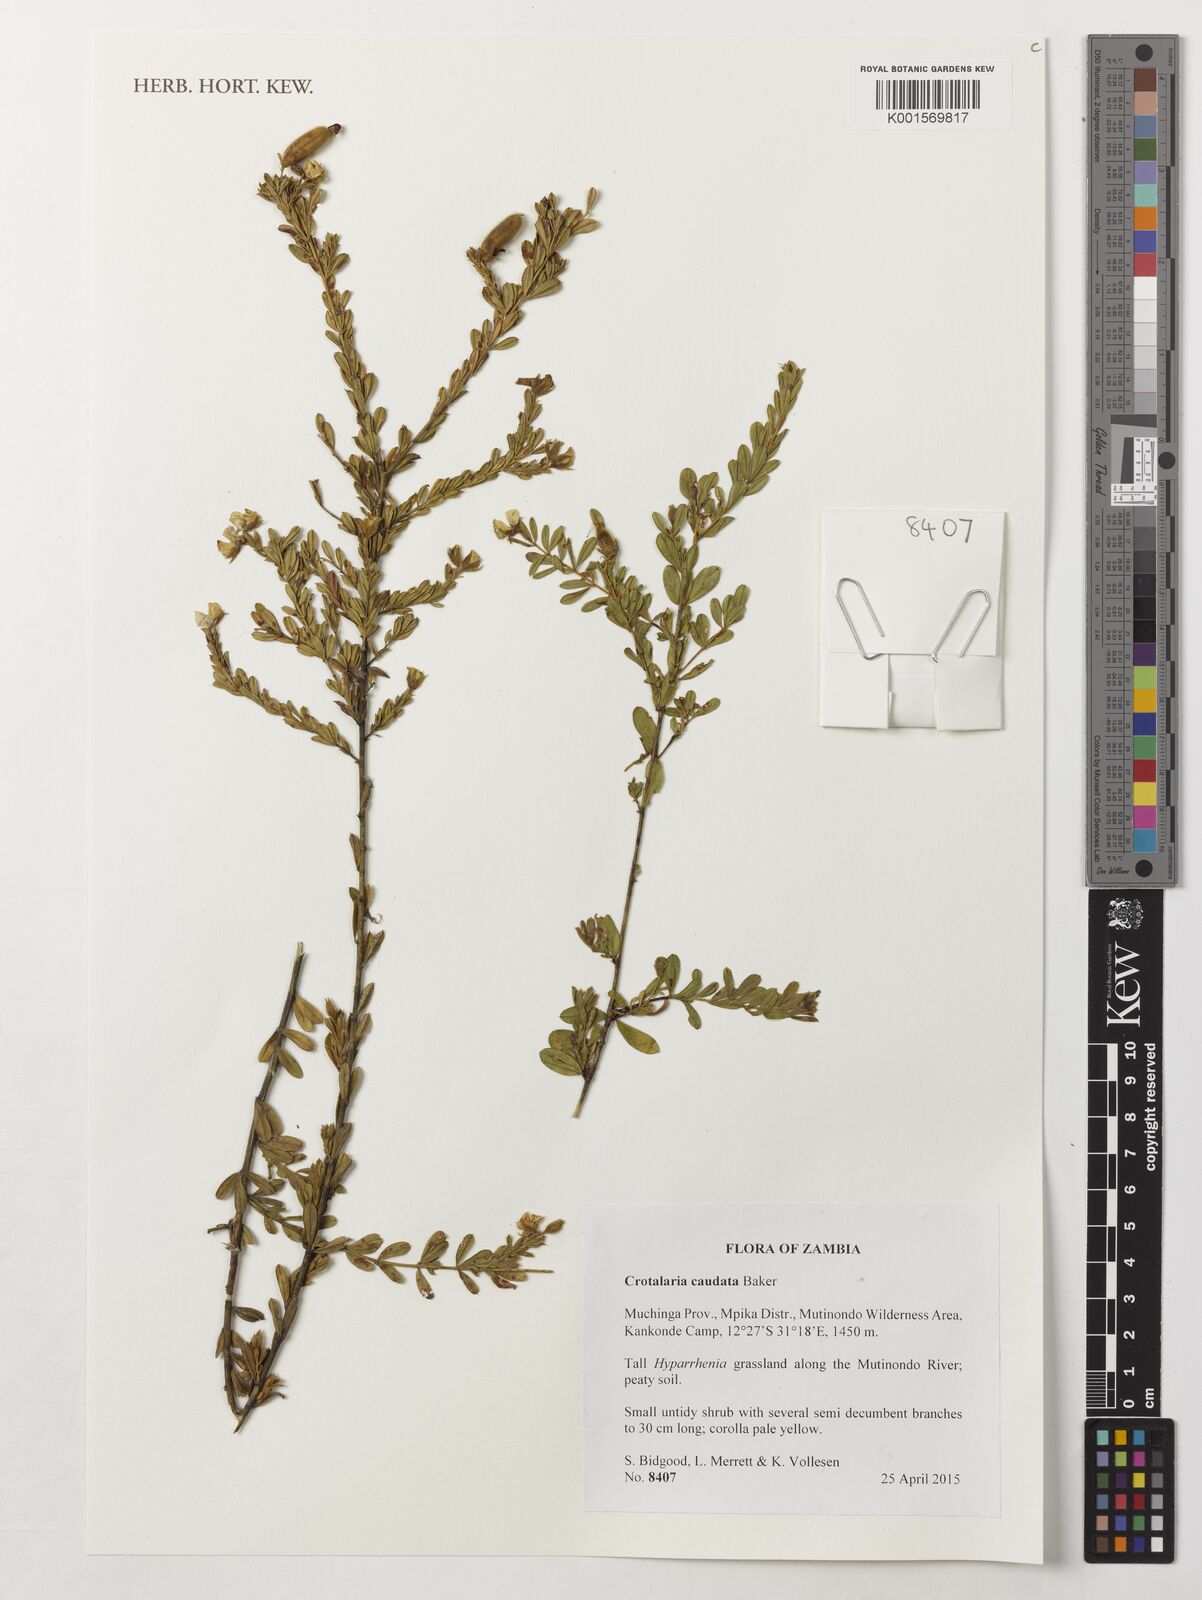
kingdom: Plantae
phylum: Tracheophyta
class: Magnoliopsida
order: Fabales
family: Fabaceae
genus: Crotalaria
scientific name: Crotalaria caudata
